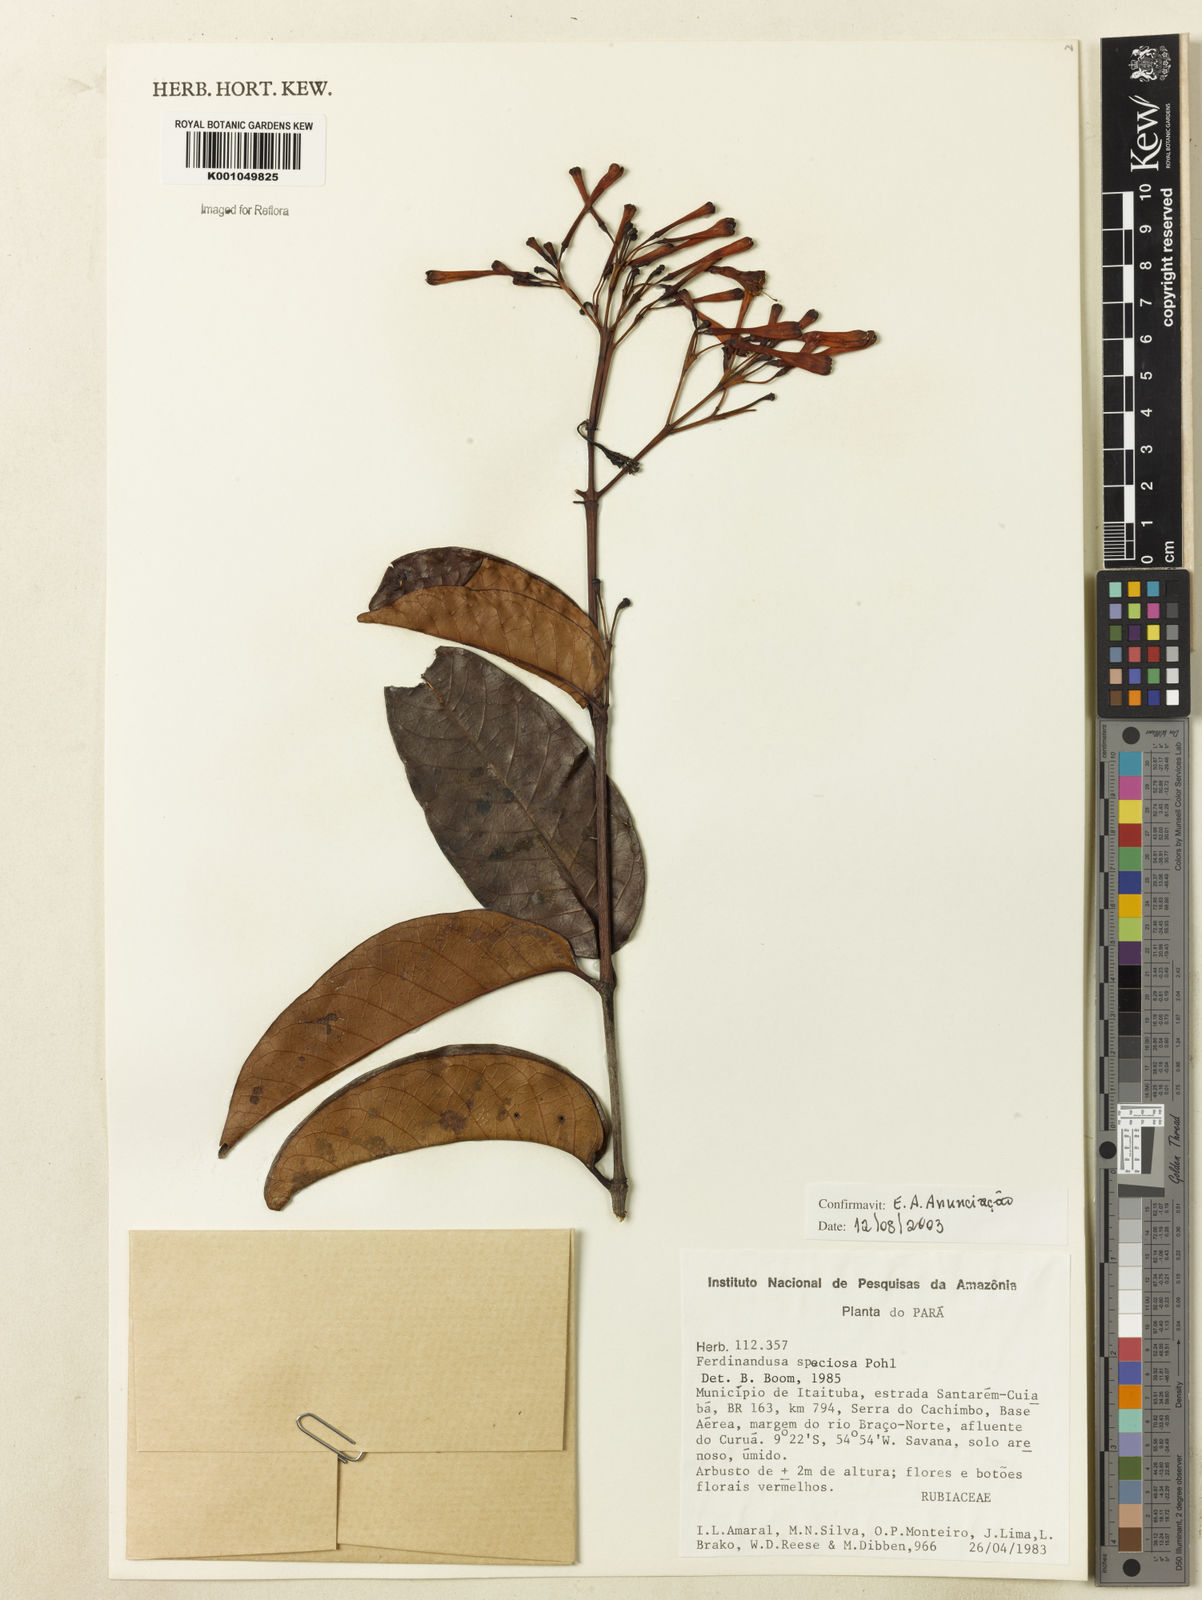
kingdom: Plantae
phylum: Tracheophyta
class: Magnoliopsida
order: Gentianales
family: Rubiaceae
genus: Ferdinandusa
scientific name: Ferdinandusa speciosa
